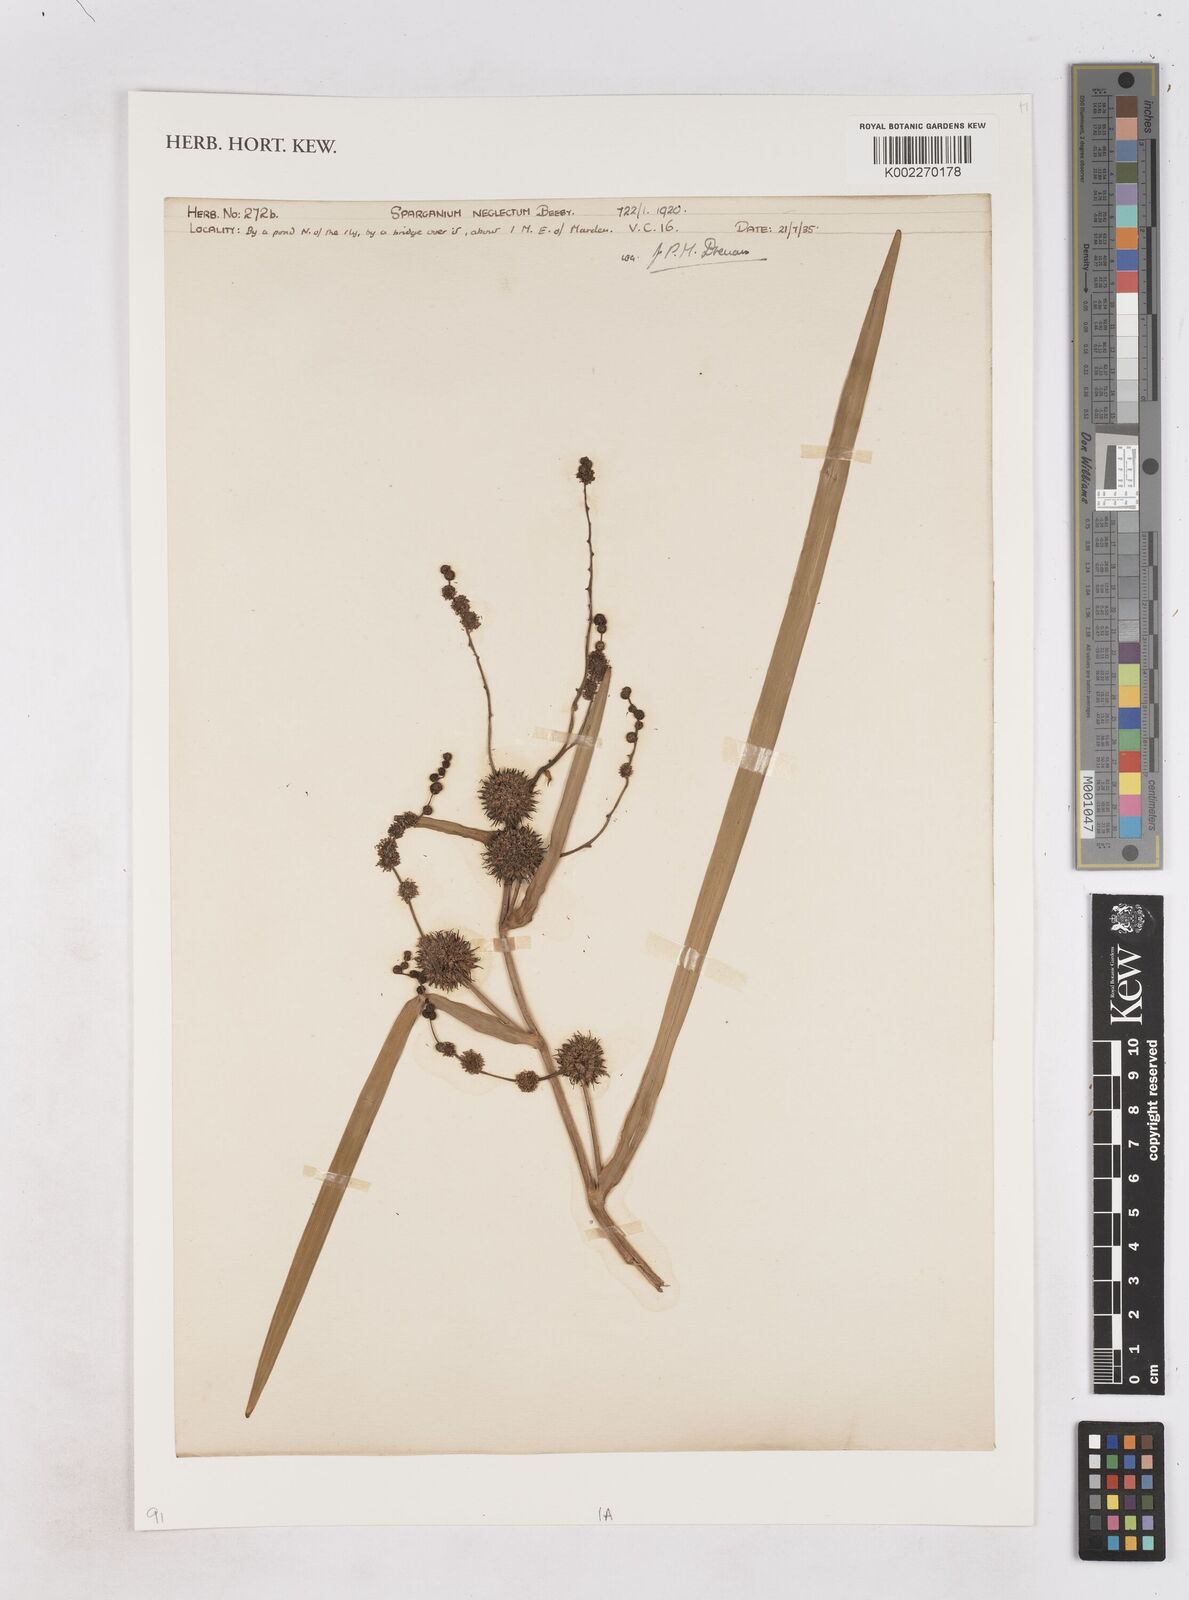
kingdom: Plantae
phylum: Tracheophyta
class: Liliopsida
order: Poales
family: Typhaceae
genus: Sparganium
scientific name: Sparganium erectum
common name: Branched bur-reed
